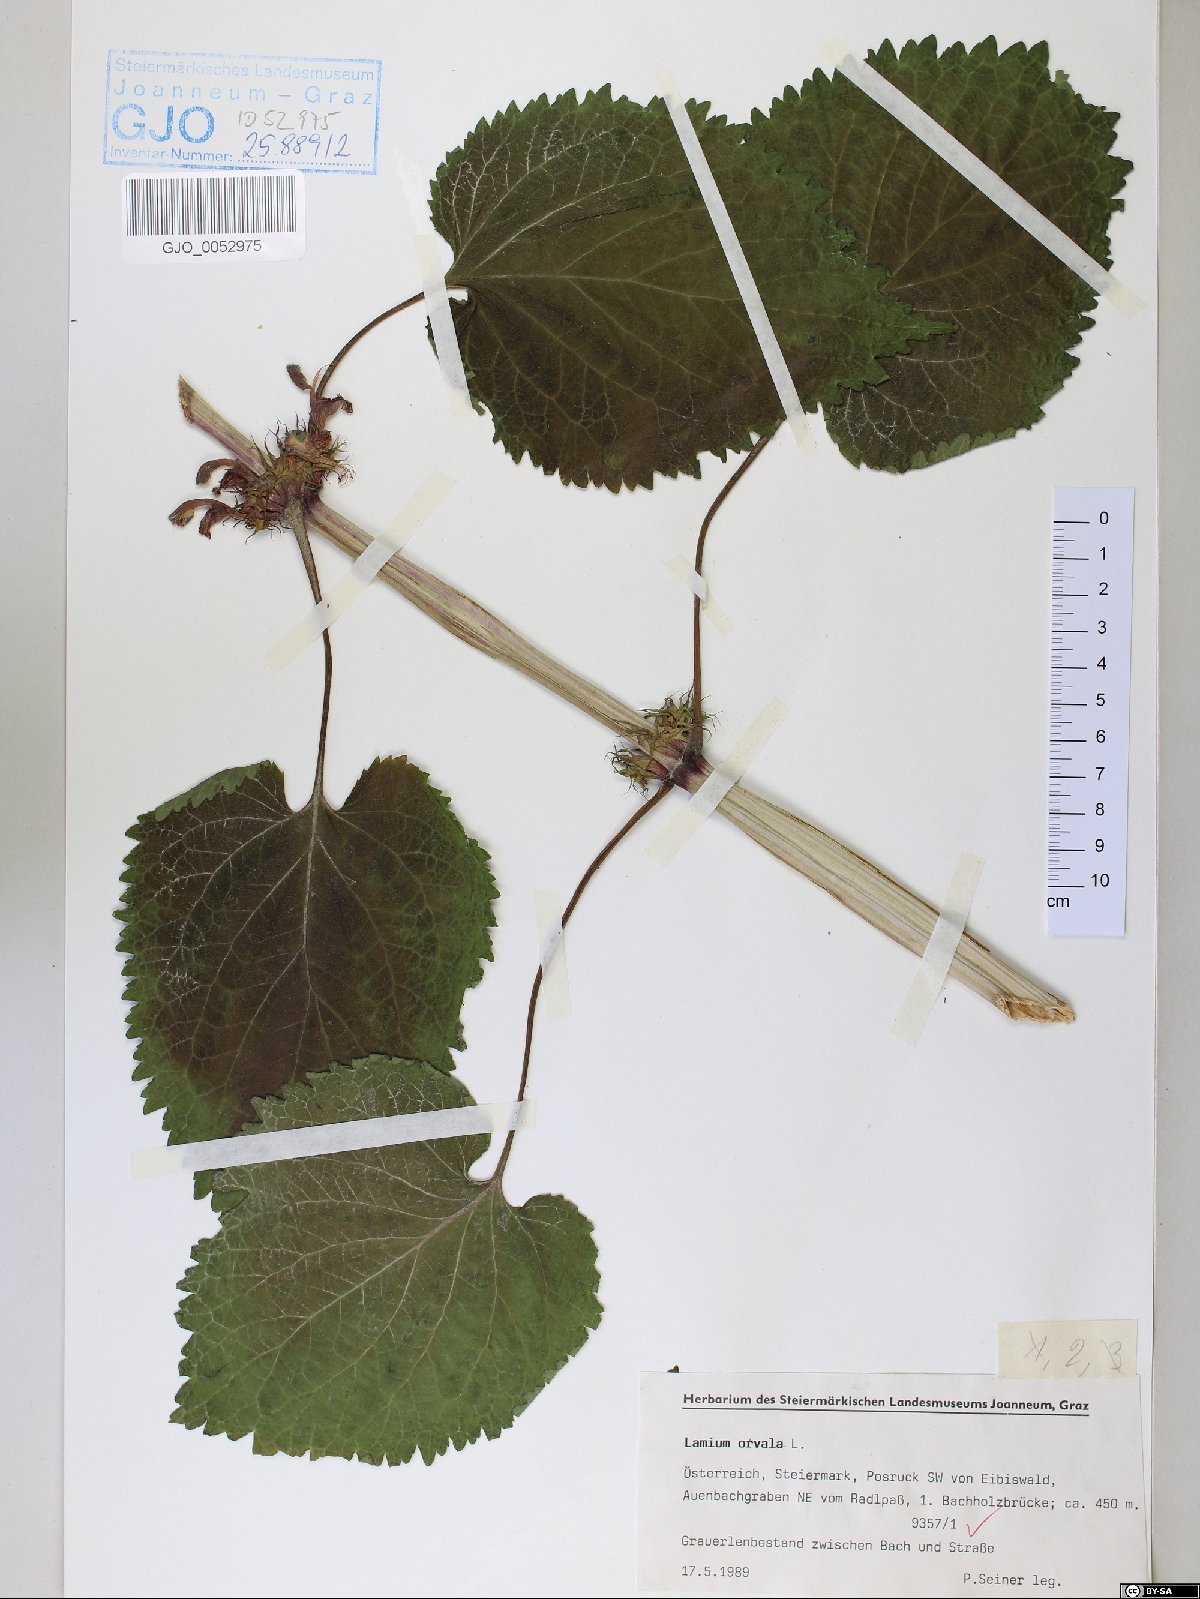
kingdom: Plantae
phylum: Tracheophyta
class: Magnoliopsida
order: Lamiales
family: Lamiaceae
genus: Lamium
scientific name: Lamium orvala
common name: Balm-leaved archangel
